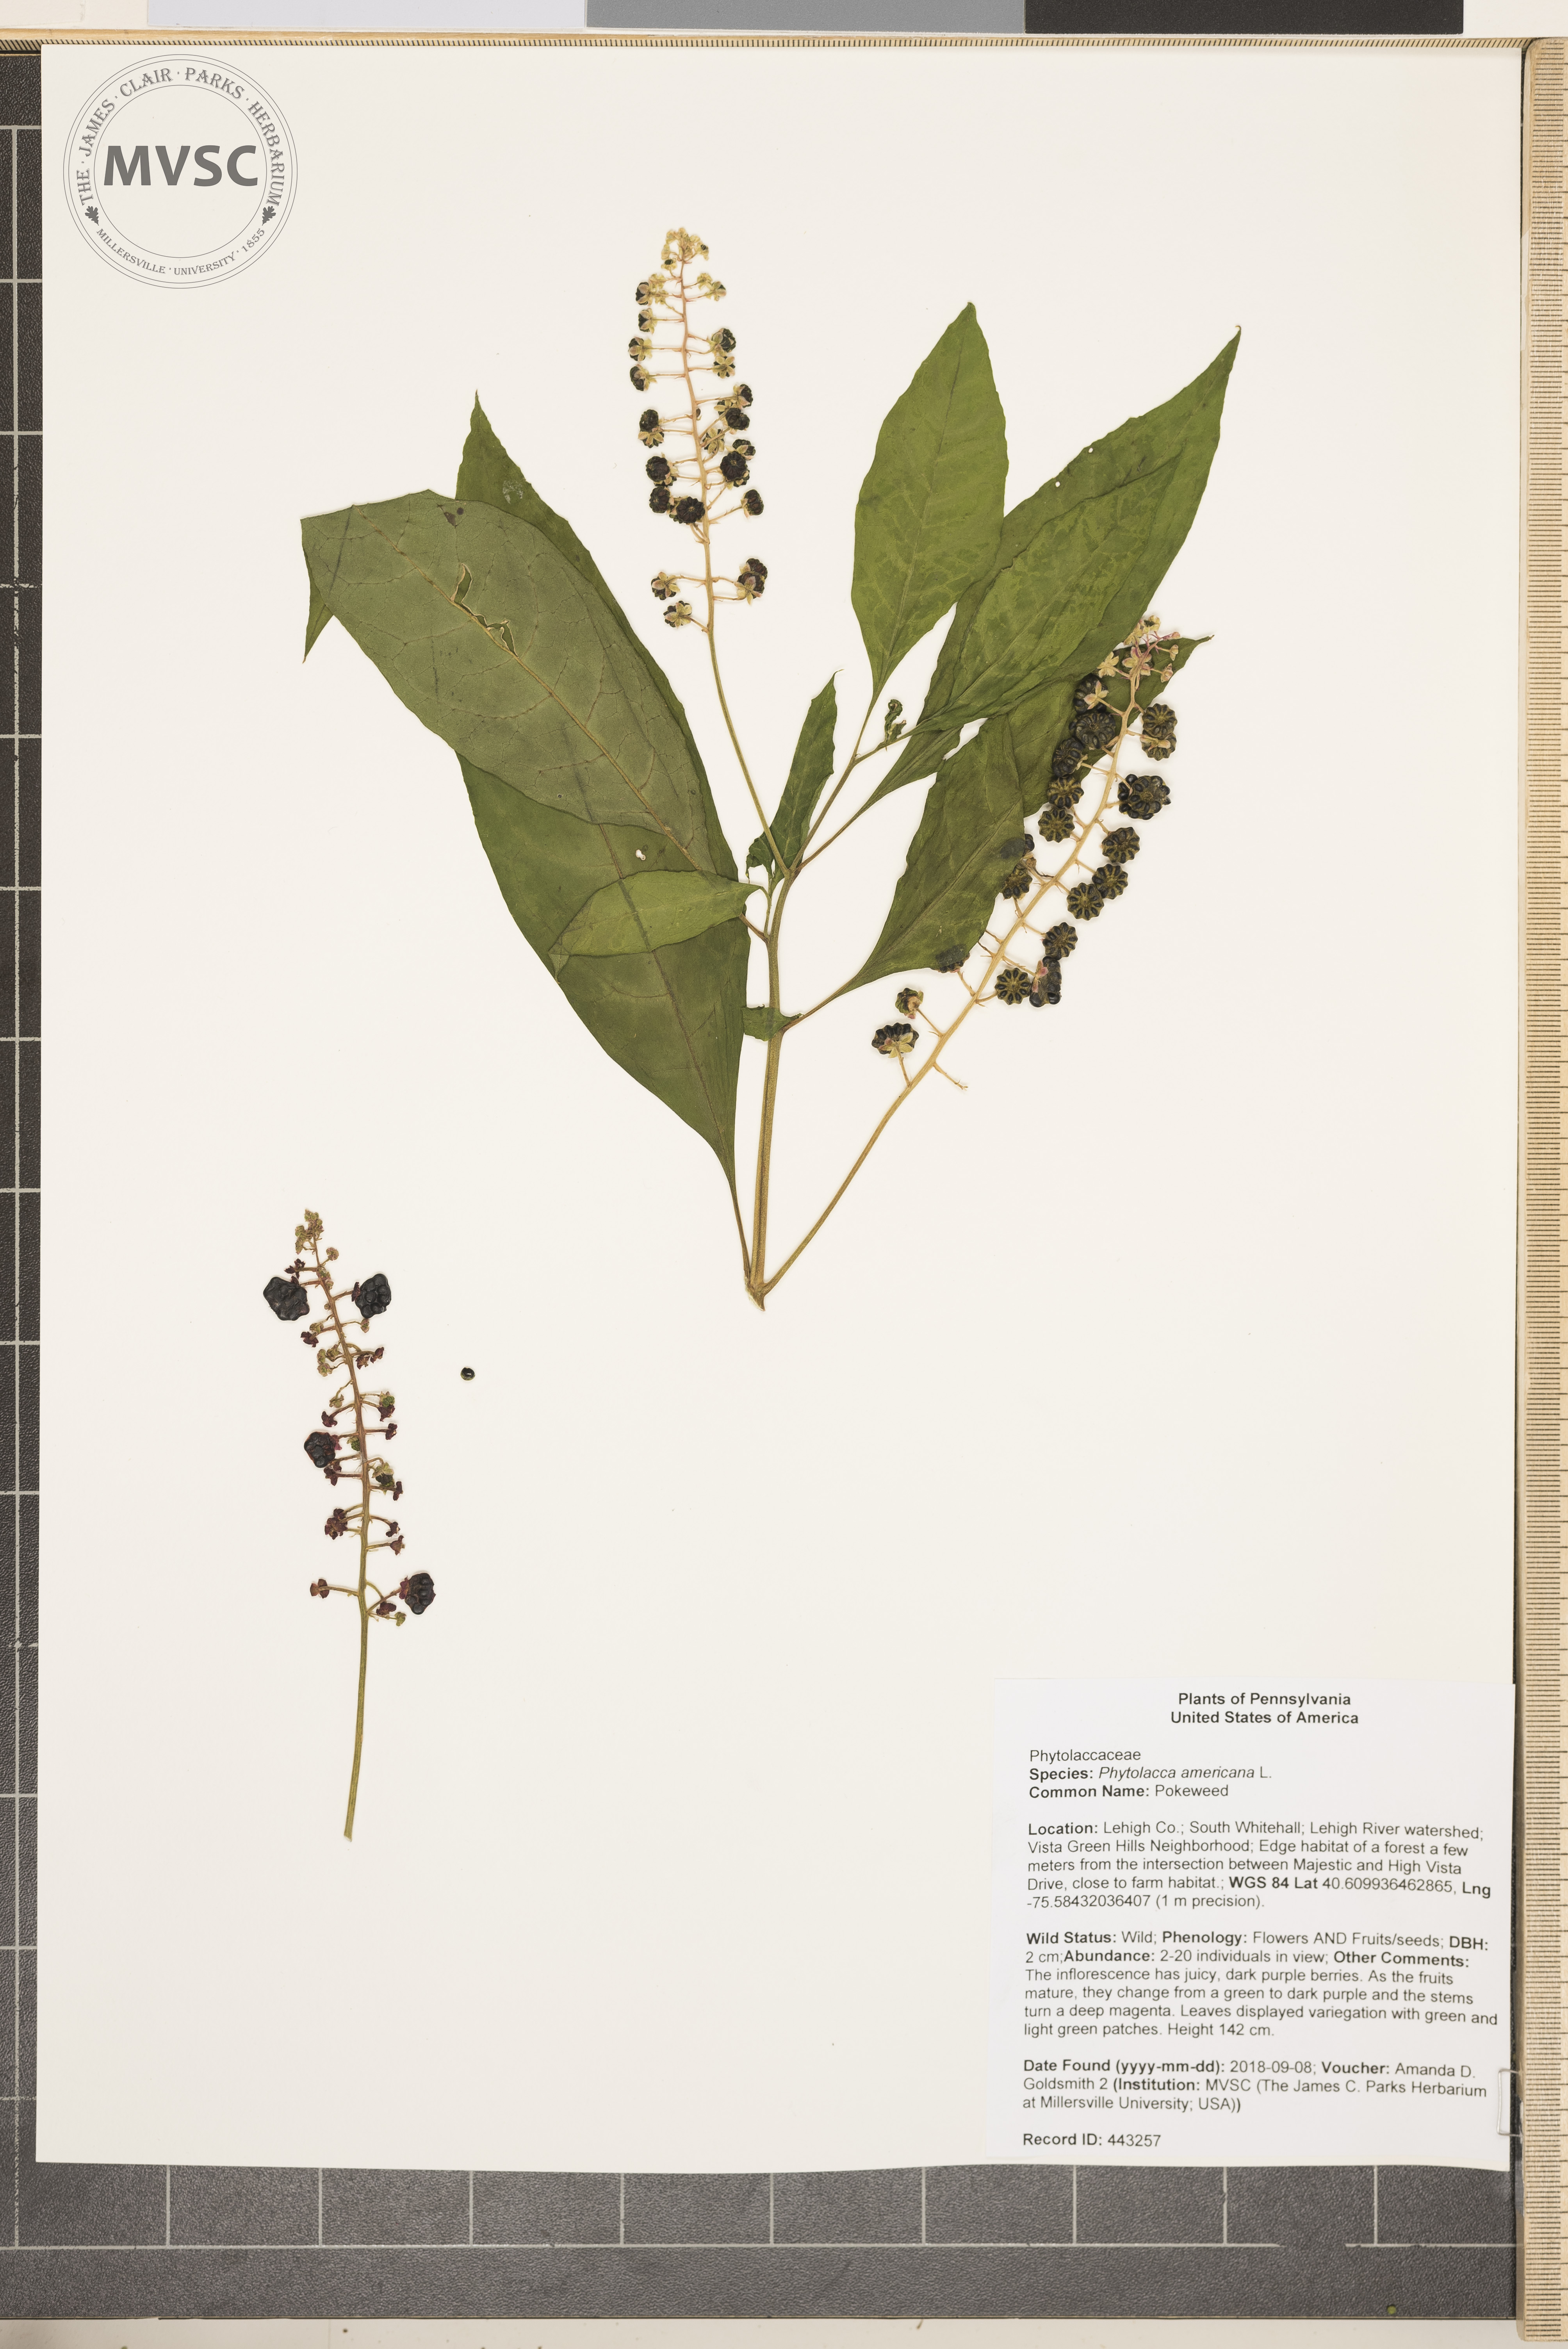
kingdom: Plantae
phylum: Tracheophyta
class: Magnoliopsida
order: Caryophyllales
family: Phytolaccaceae
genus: Phytolacca
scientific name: Phytolacca americana
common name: Pokeweed
